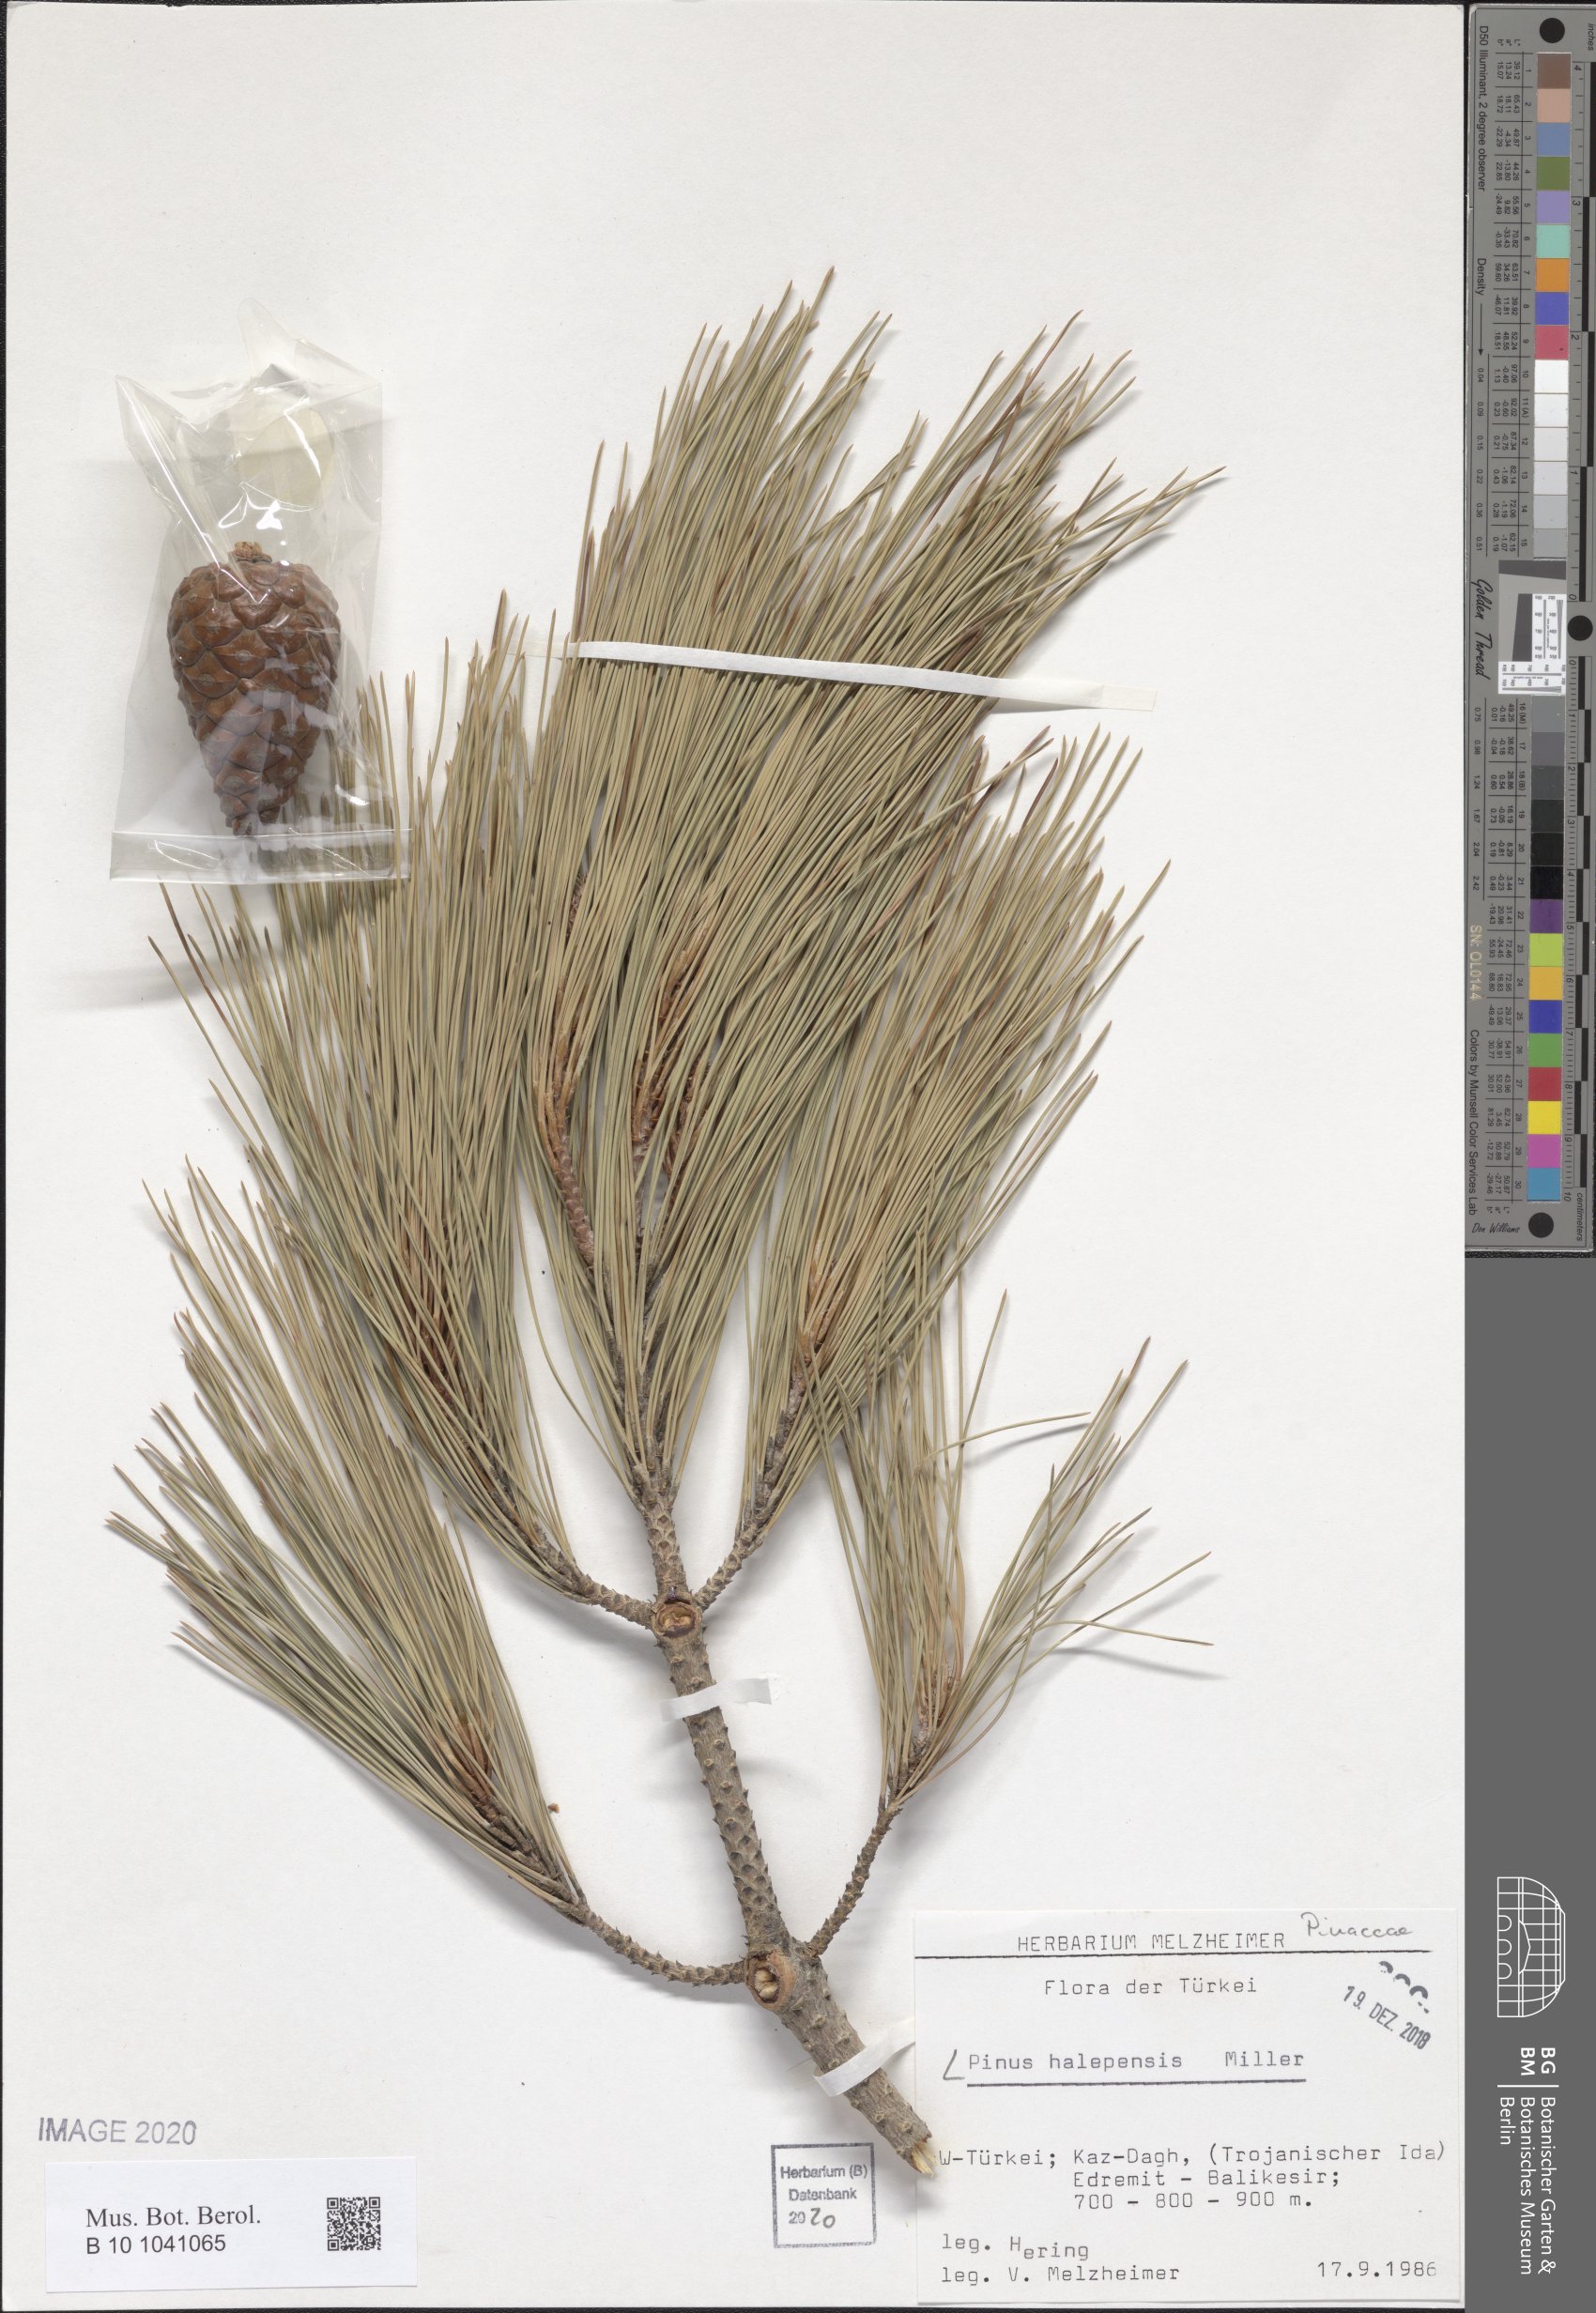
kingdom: Plantae
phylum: Tracheophyta
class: Pinopsida
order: Pinales
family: Pinaceae
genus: Pinus
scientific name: Pinus halepensis
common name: Aleppo pine
